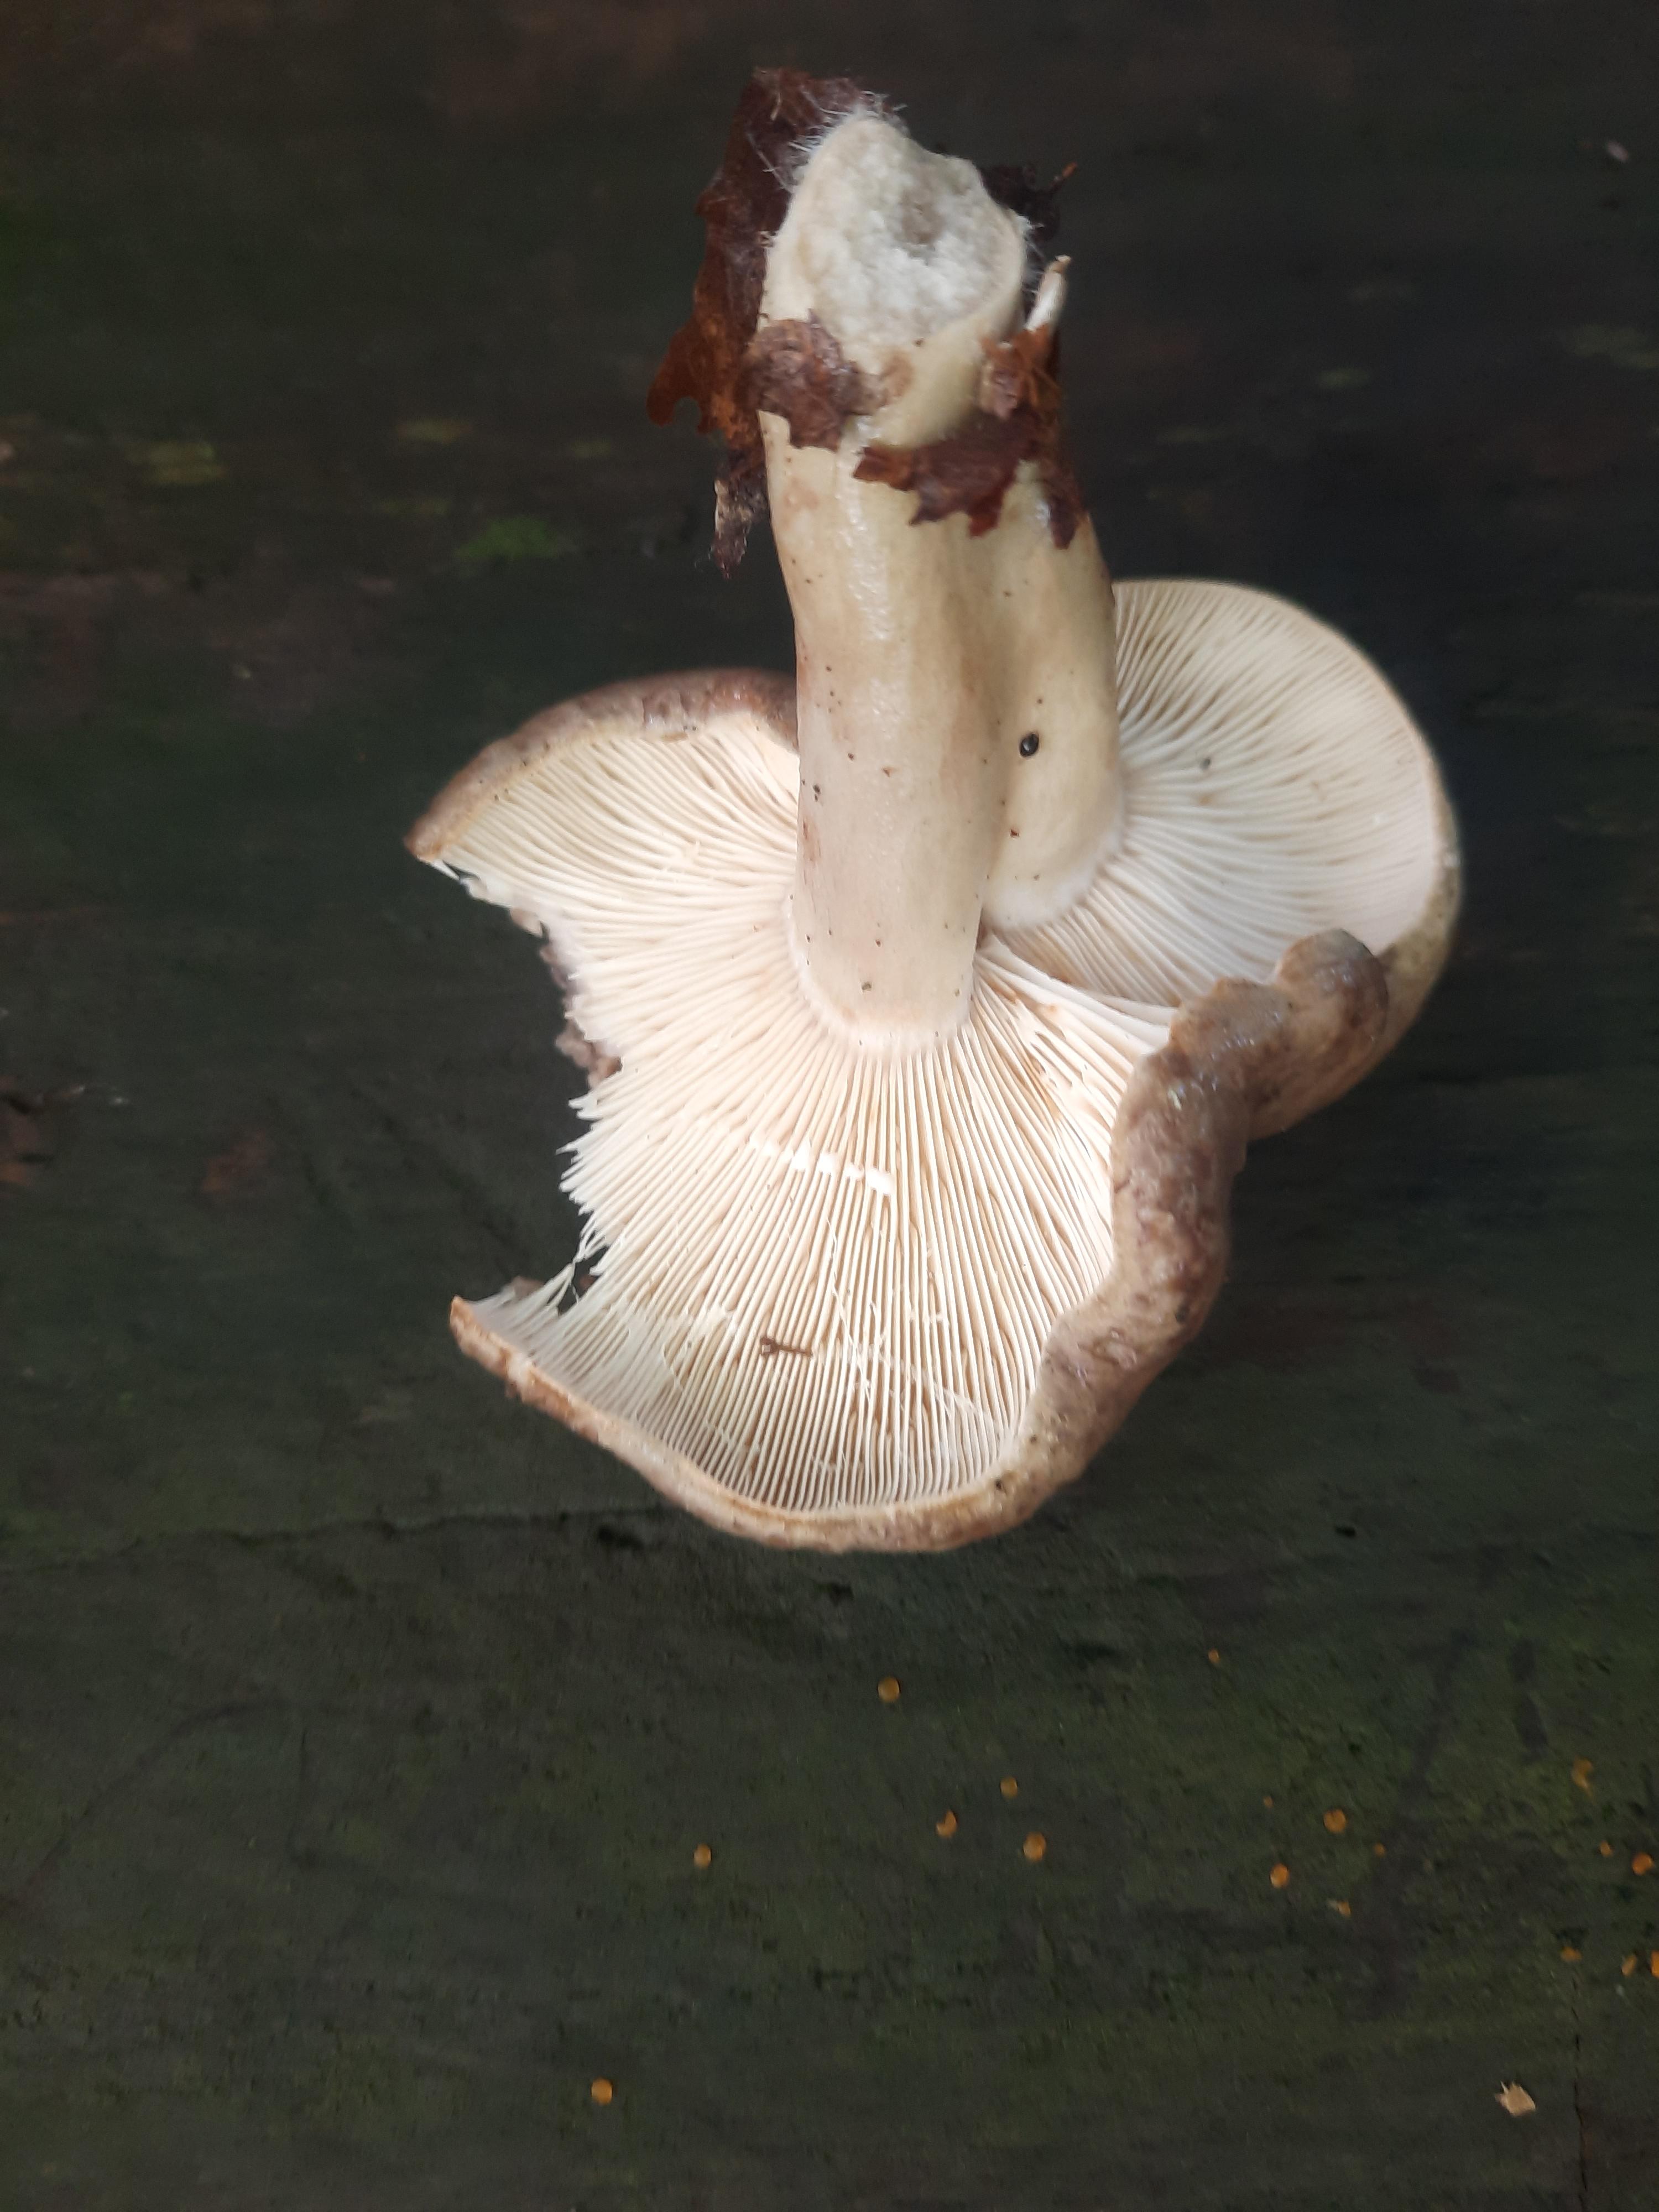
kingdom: Fungi
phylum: Basidiomycota
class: Agaricomycetes
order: Russulales
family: Russulaceae
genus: Lactarius
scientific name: Lactarius blennius
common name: dråbeplettet mælkehat
